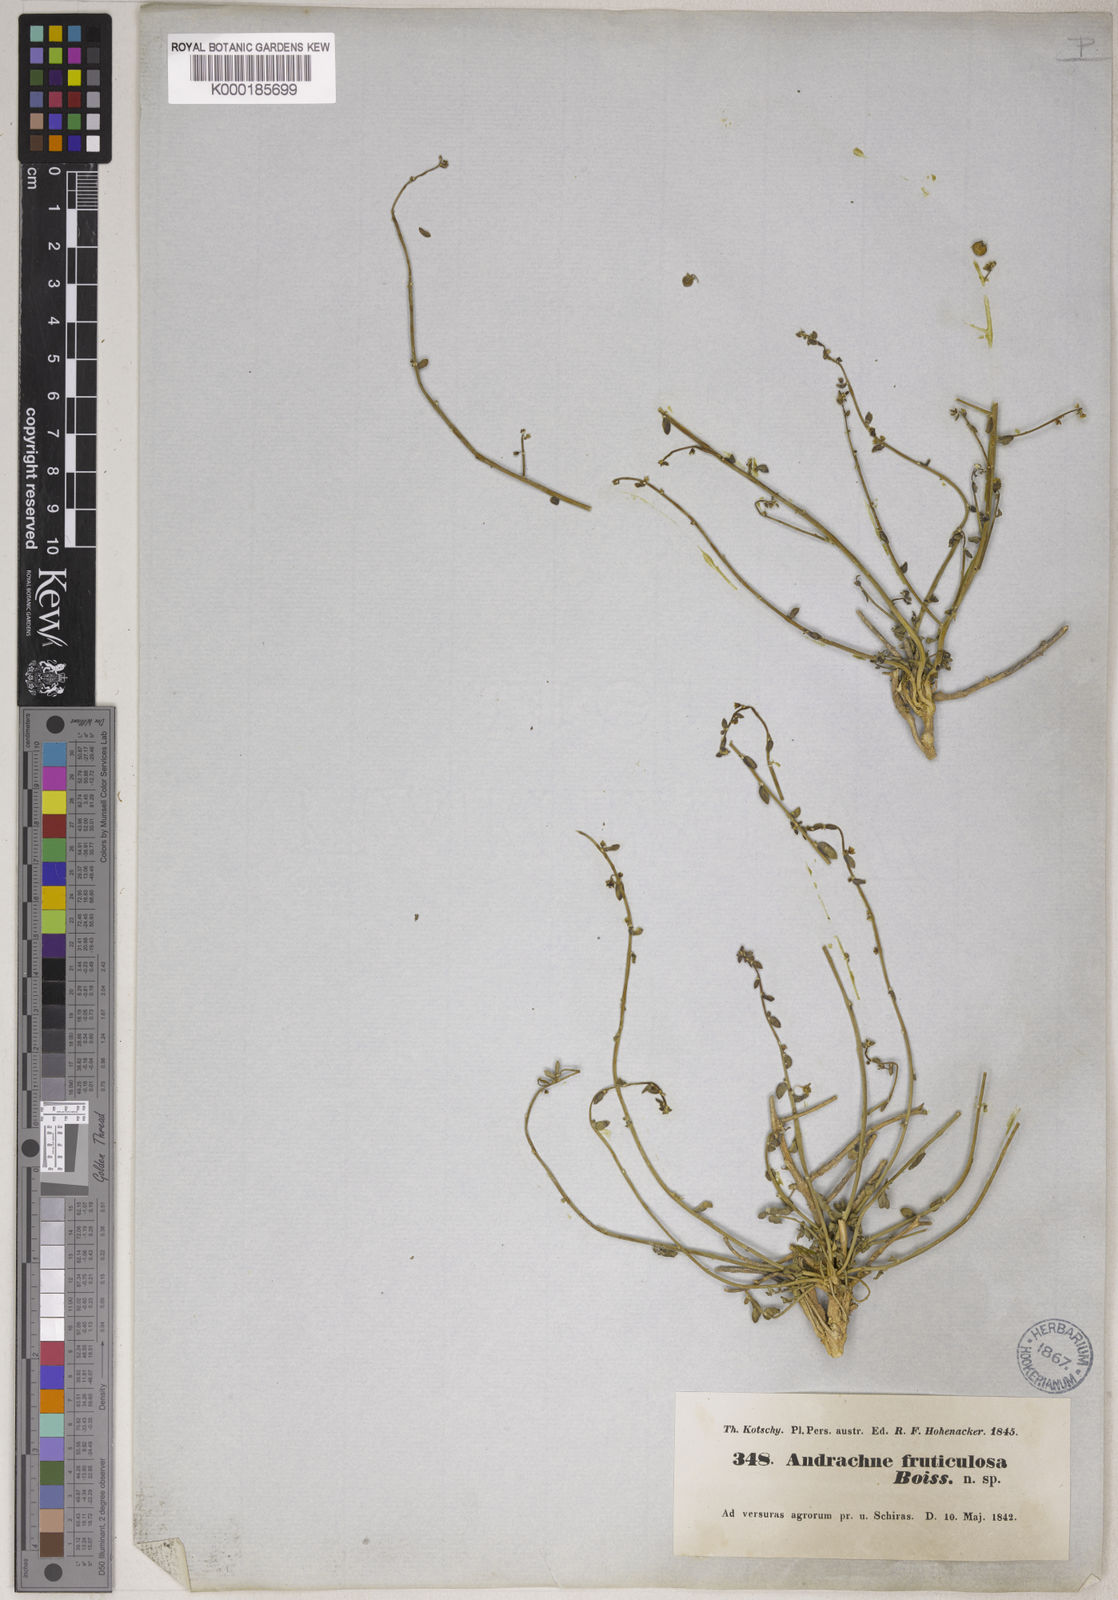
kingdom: Plantae
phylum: Tracheophyta
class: Magnoliopsida
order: Malpighiales
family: Phyllanthaceae
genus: Andrachne
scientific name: Andrachne fruticulosa
